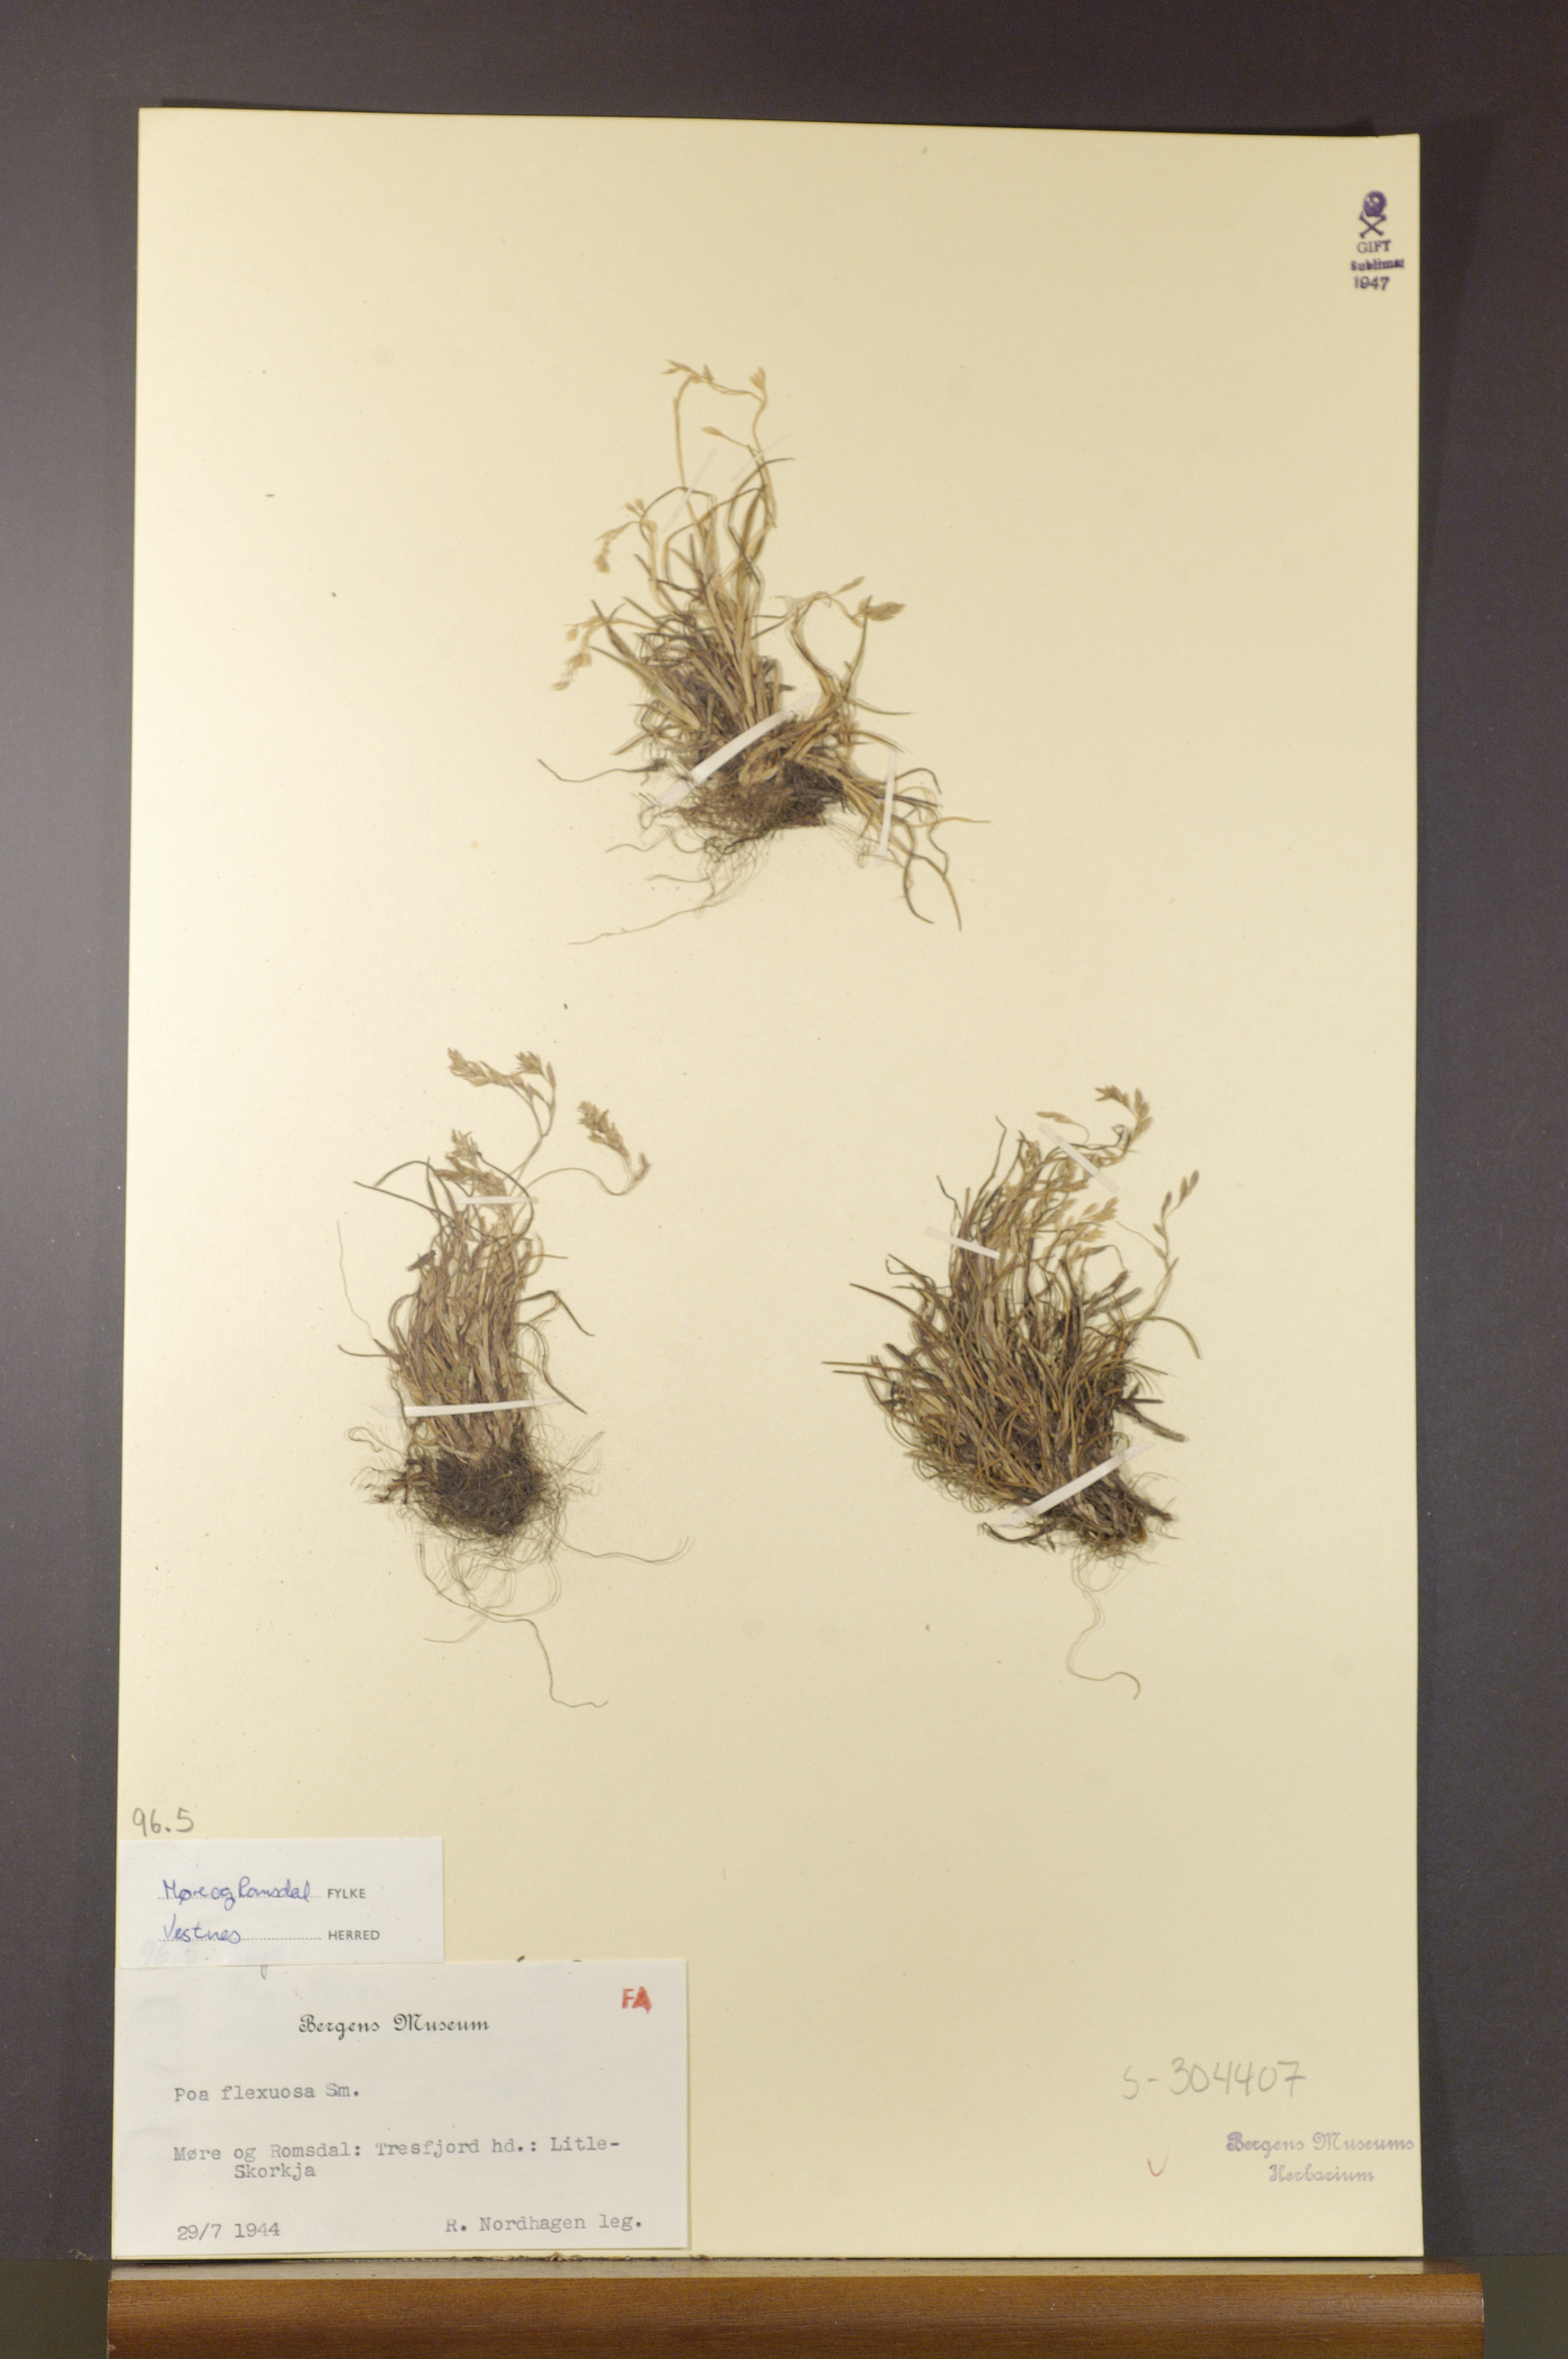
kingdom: Plantae
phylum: Tracheophyta
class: Liliopsida
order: Poales
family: Poaceae
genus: Poa
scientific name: Poa flexuosa
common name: Wavy meadow-grass
